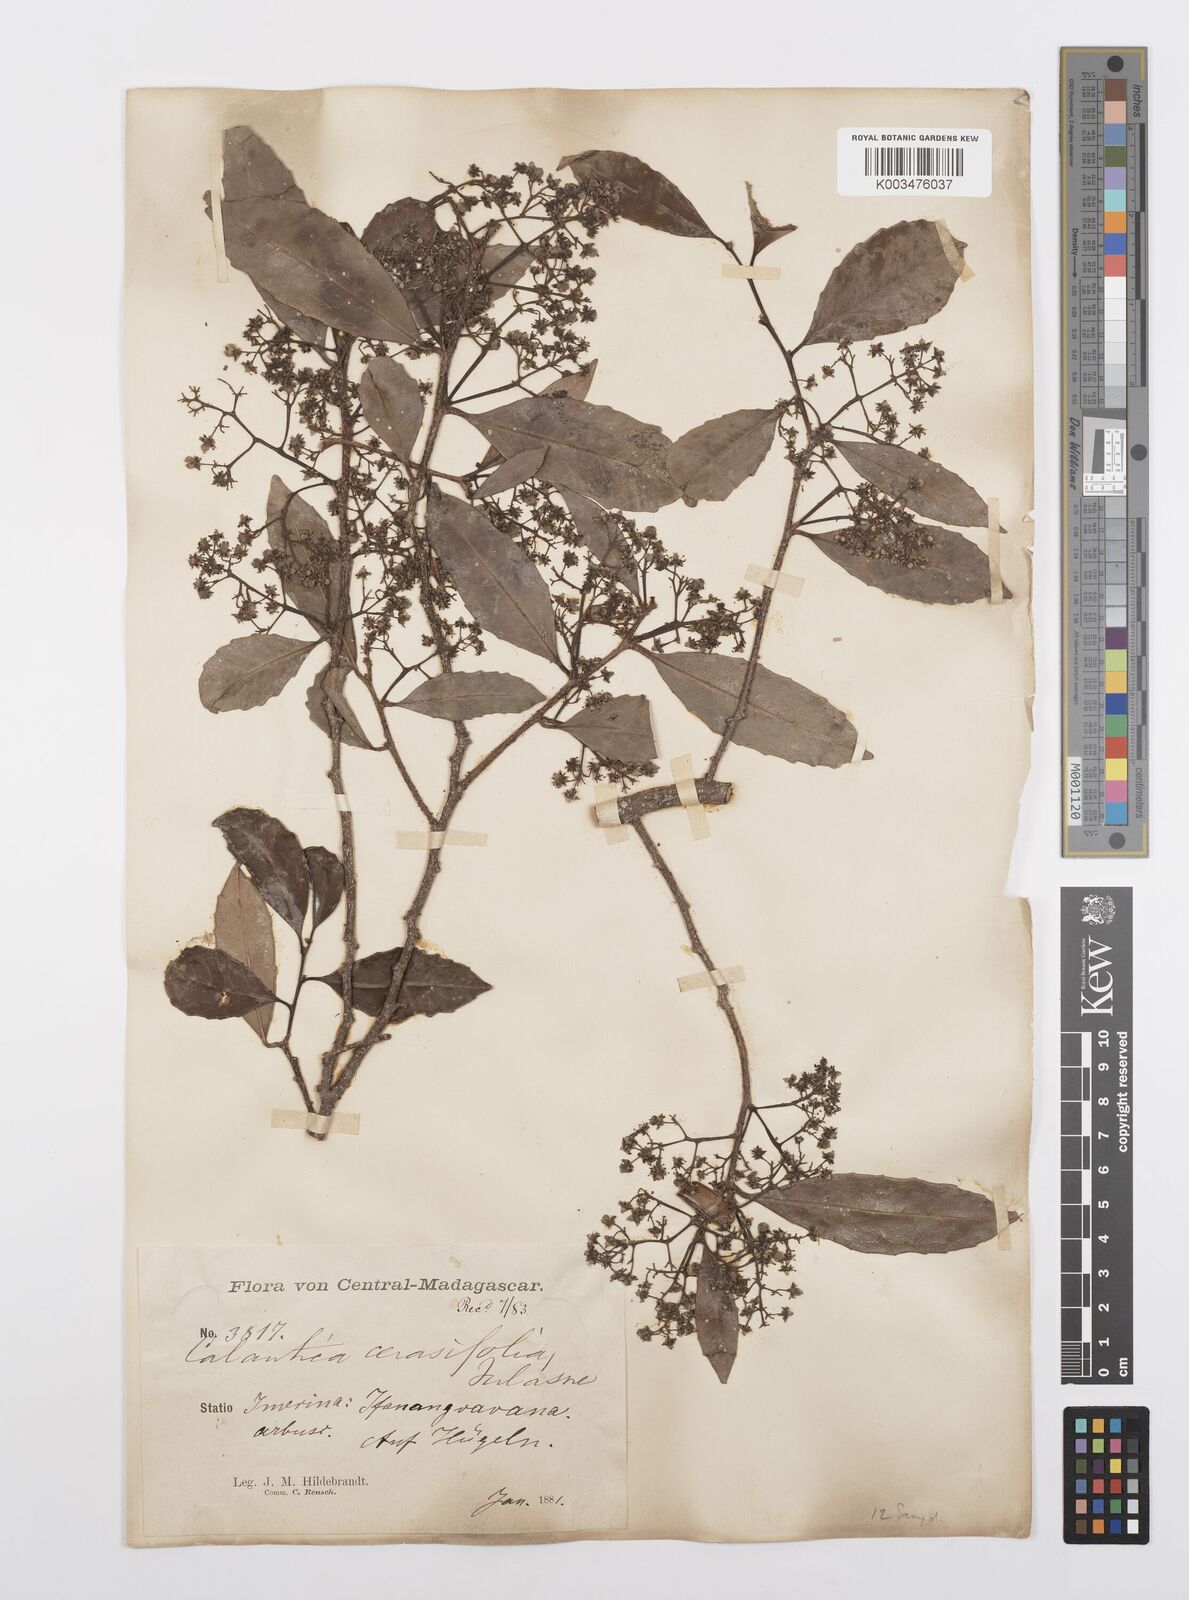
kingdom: Plantae
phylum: Tracheophyta
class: Magnoliopsida
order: Malpighiales
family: Salicaceae
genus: Calantica
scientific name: Calantica cerasifolia
